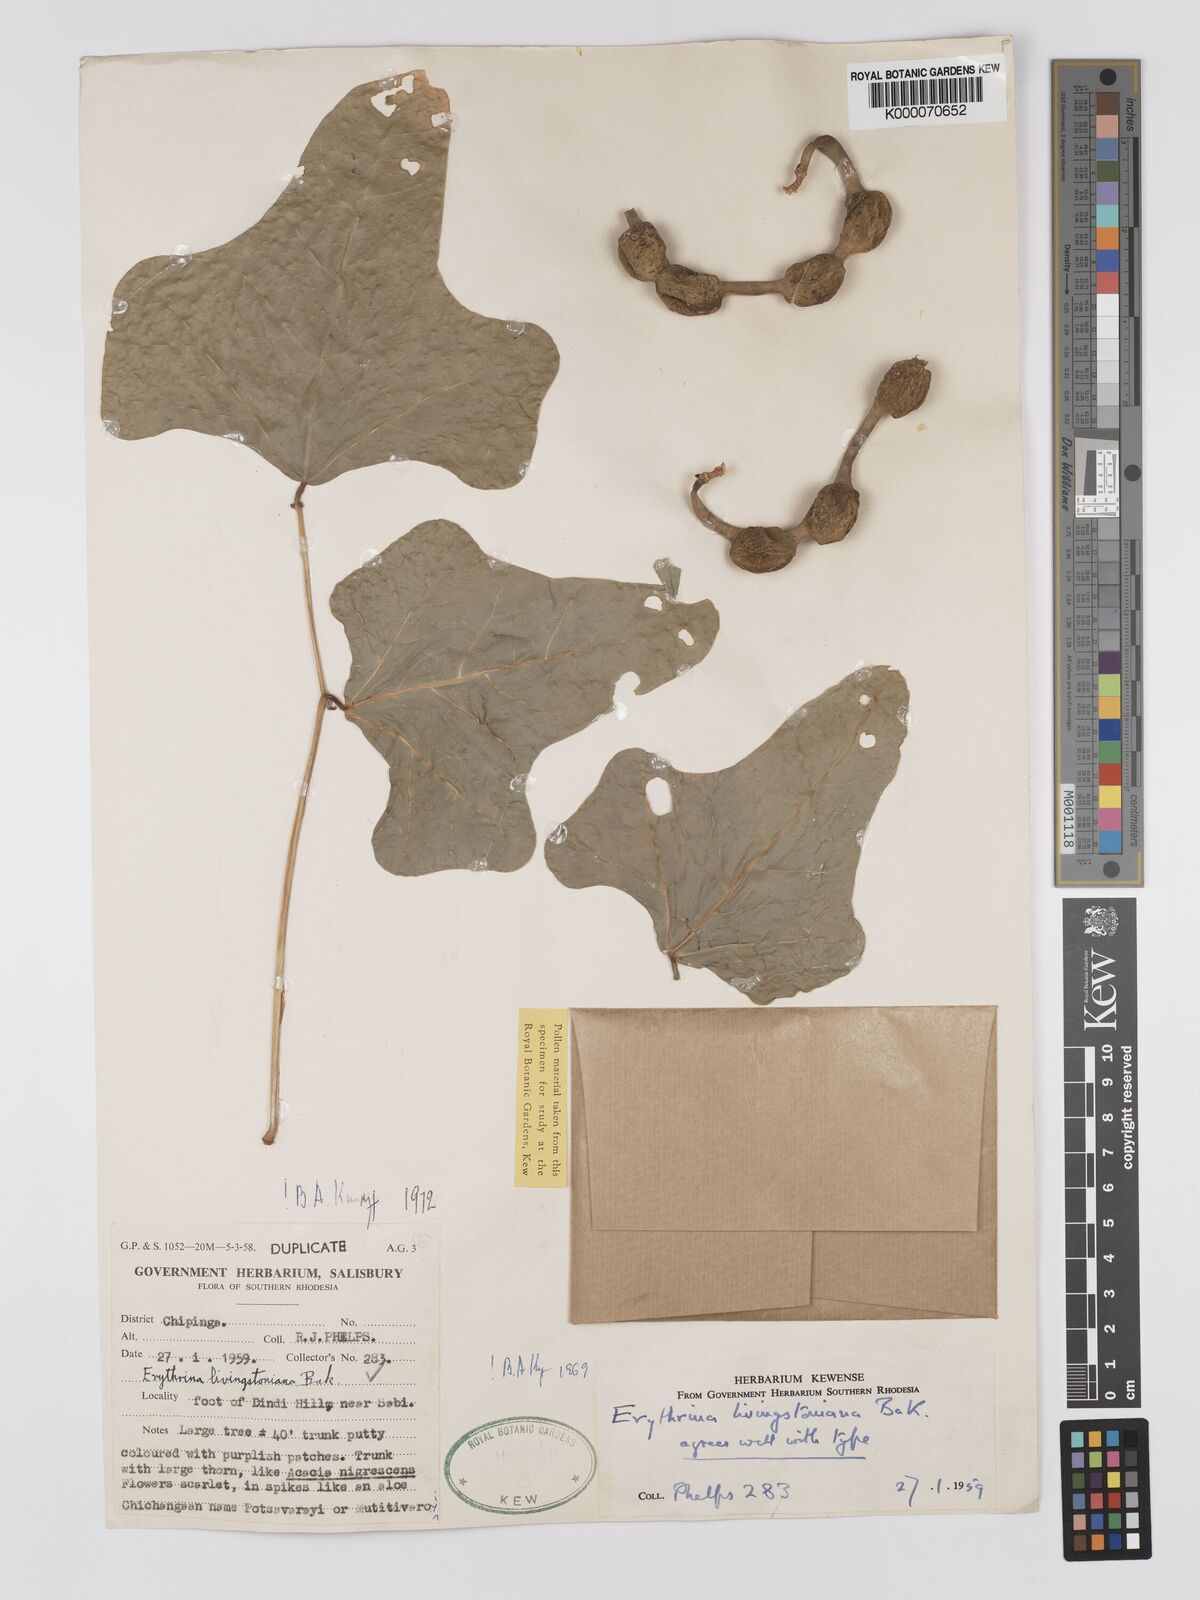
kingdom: Plantae
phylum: Tracheophyta
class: Magnoliopsida
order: Fabales
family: Fabaceae
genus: Erythrina
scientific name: Erythrina
